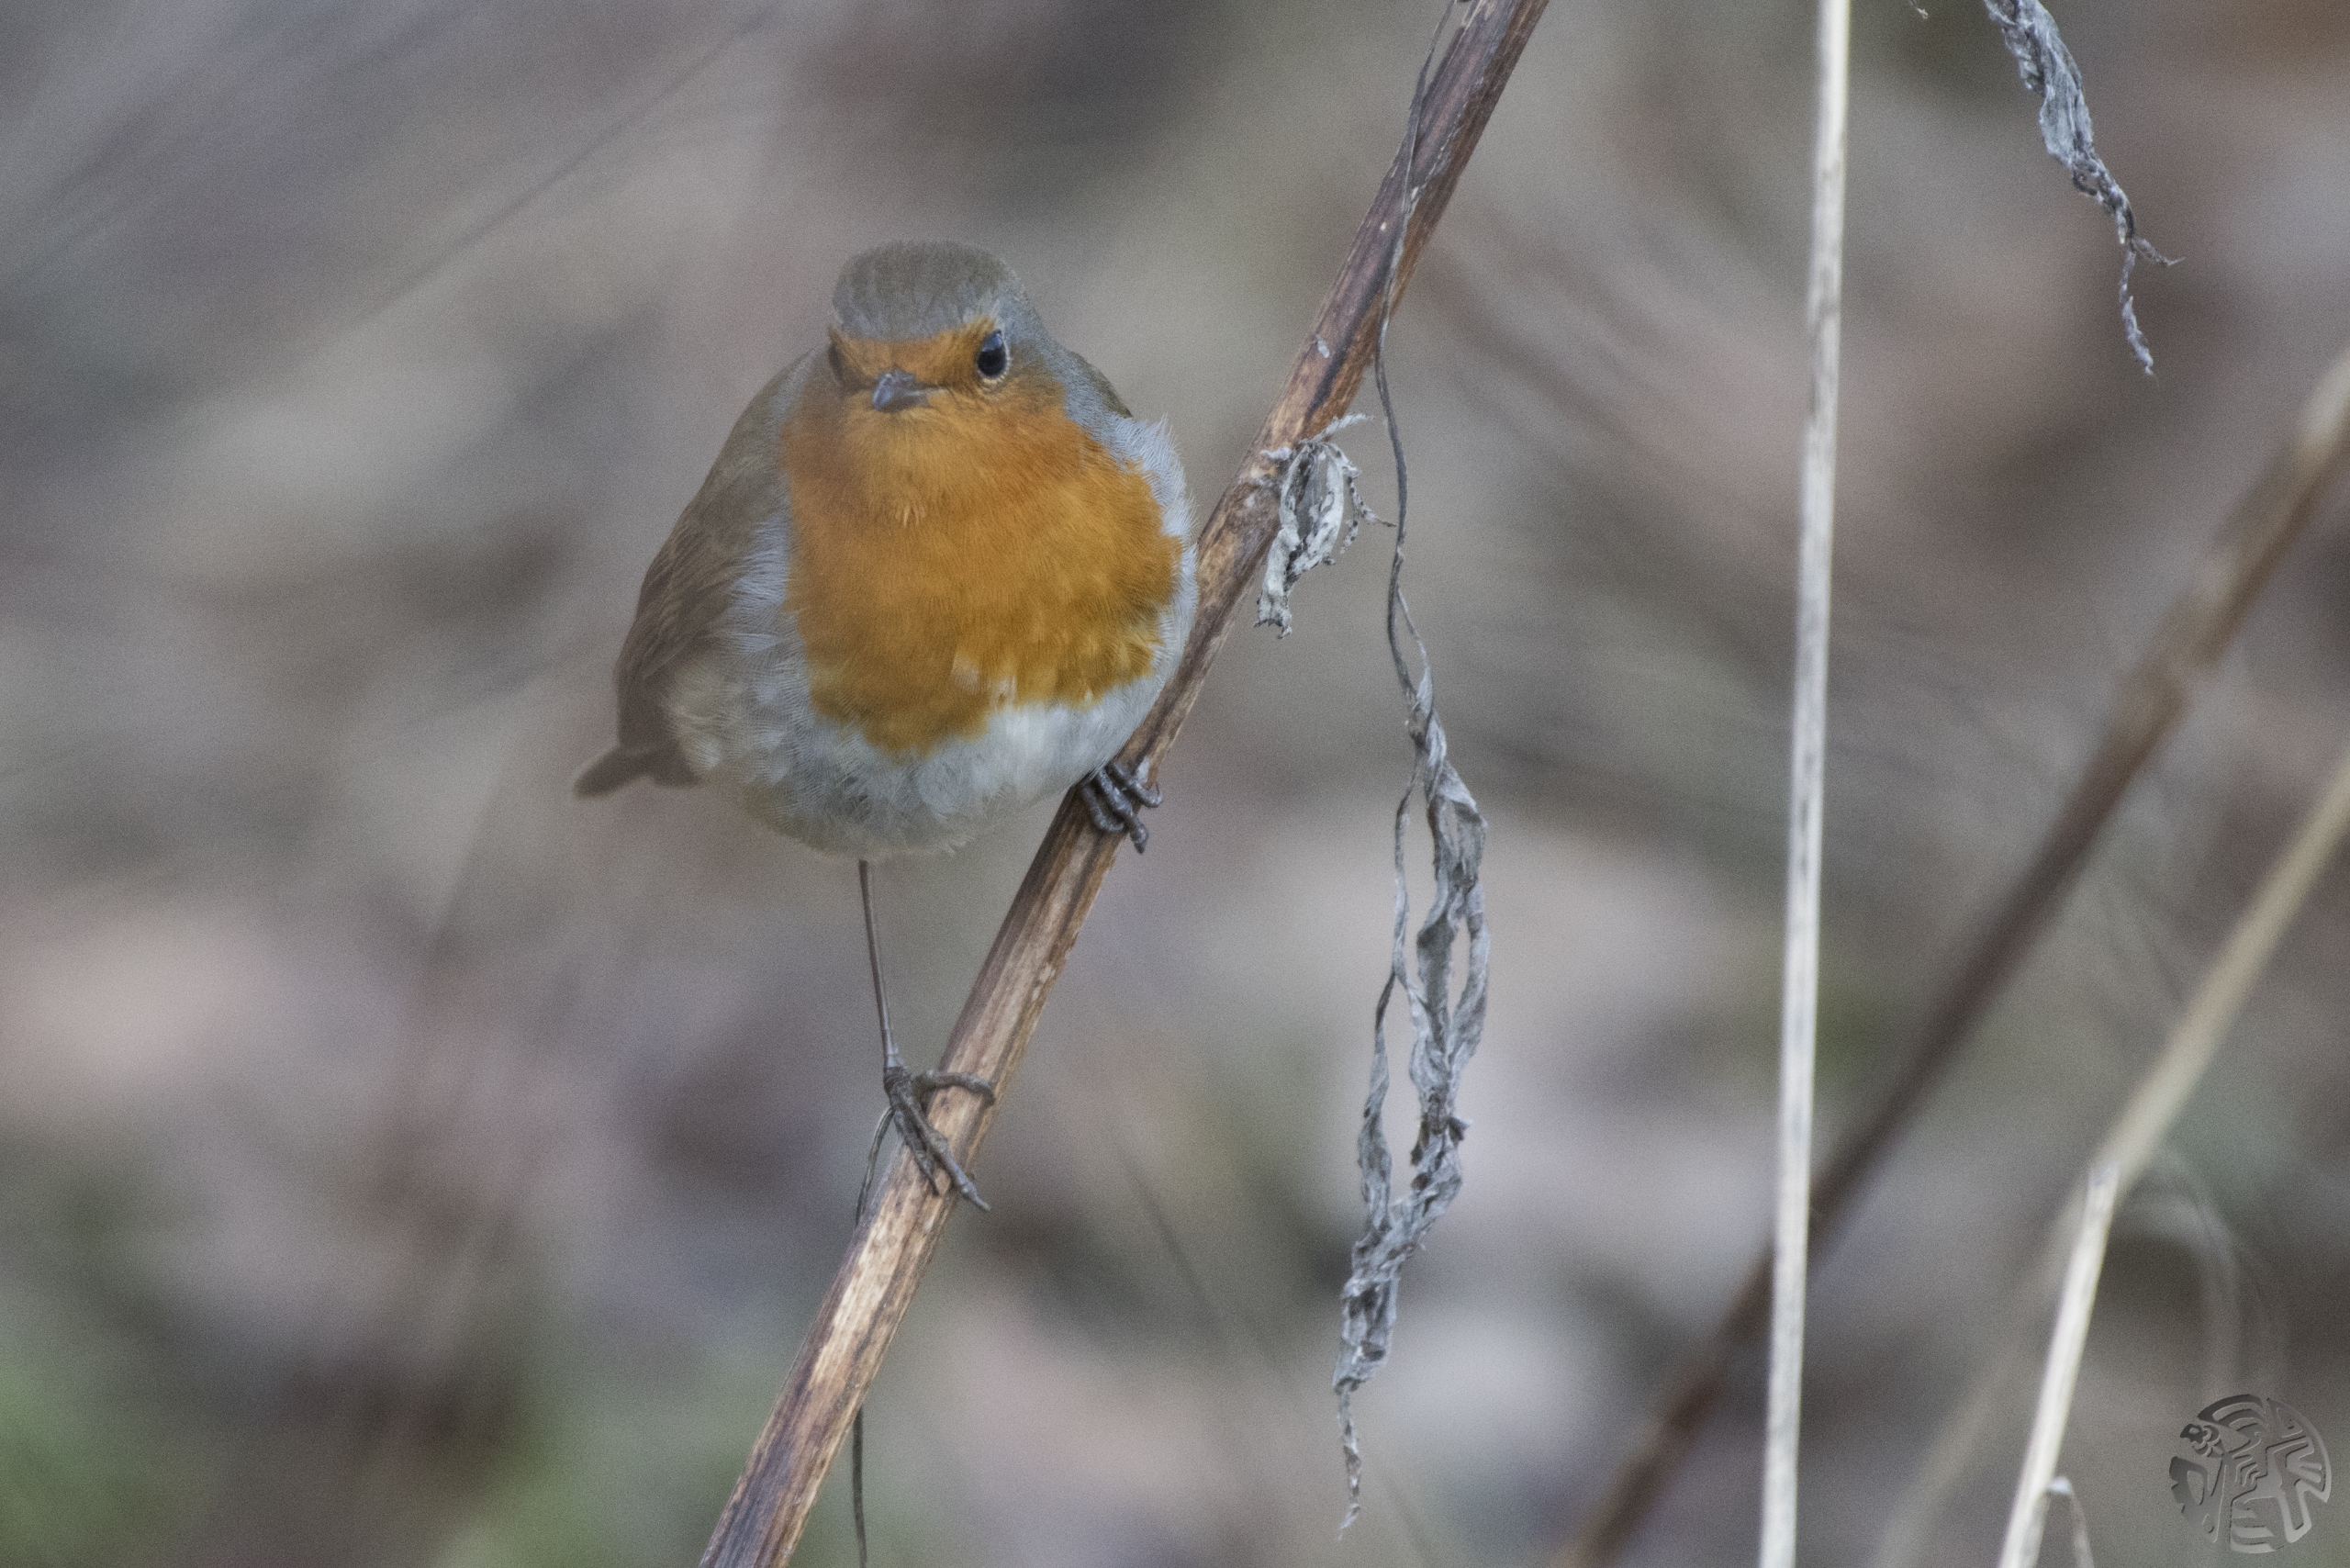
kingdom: Animalia
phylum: Chordata
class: Aves
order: Passeriformes
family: Muscicapidae
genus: Erithacus
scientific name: Erithacus rubecula
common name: Rødhals/rødkælk
